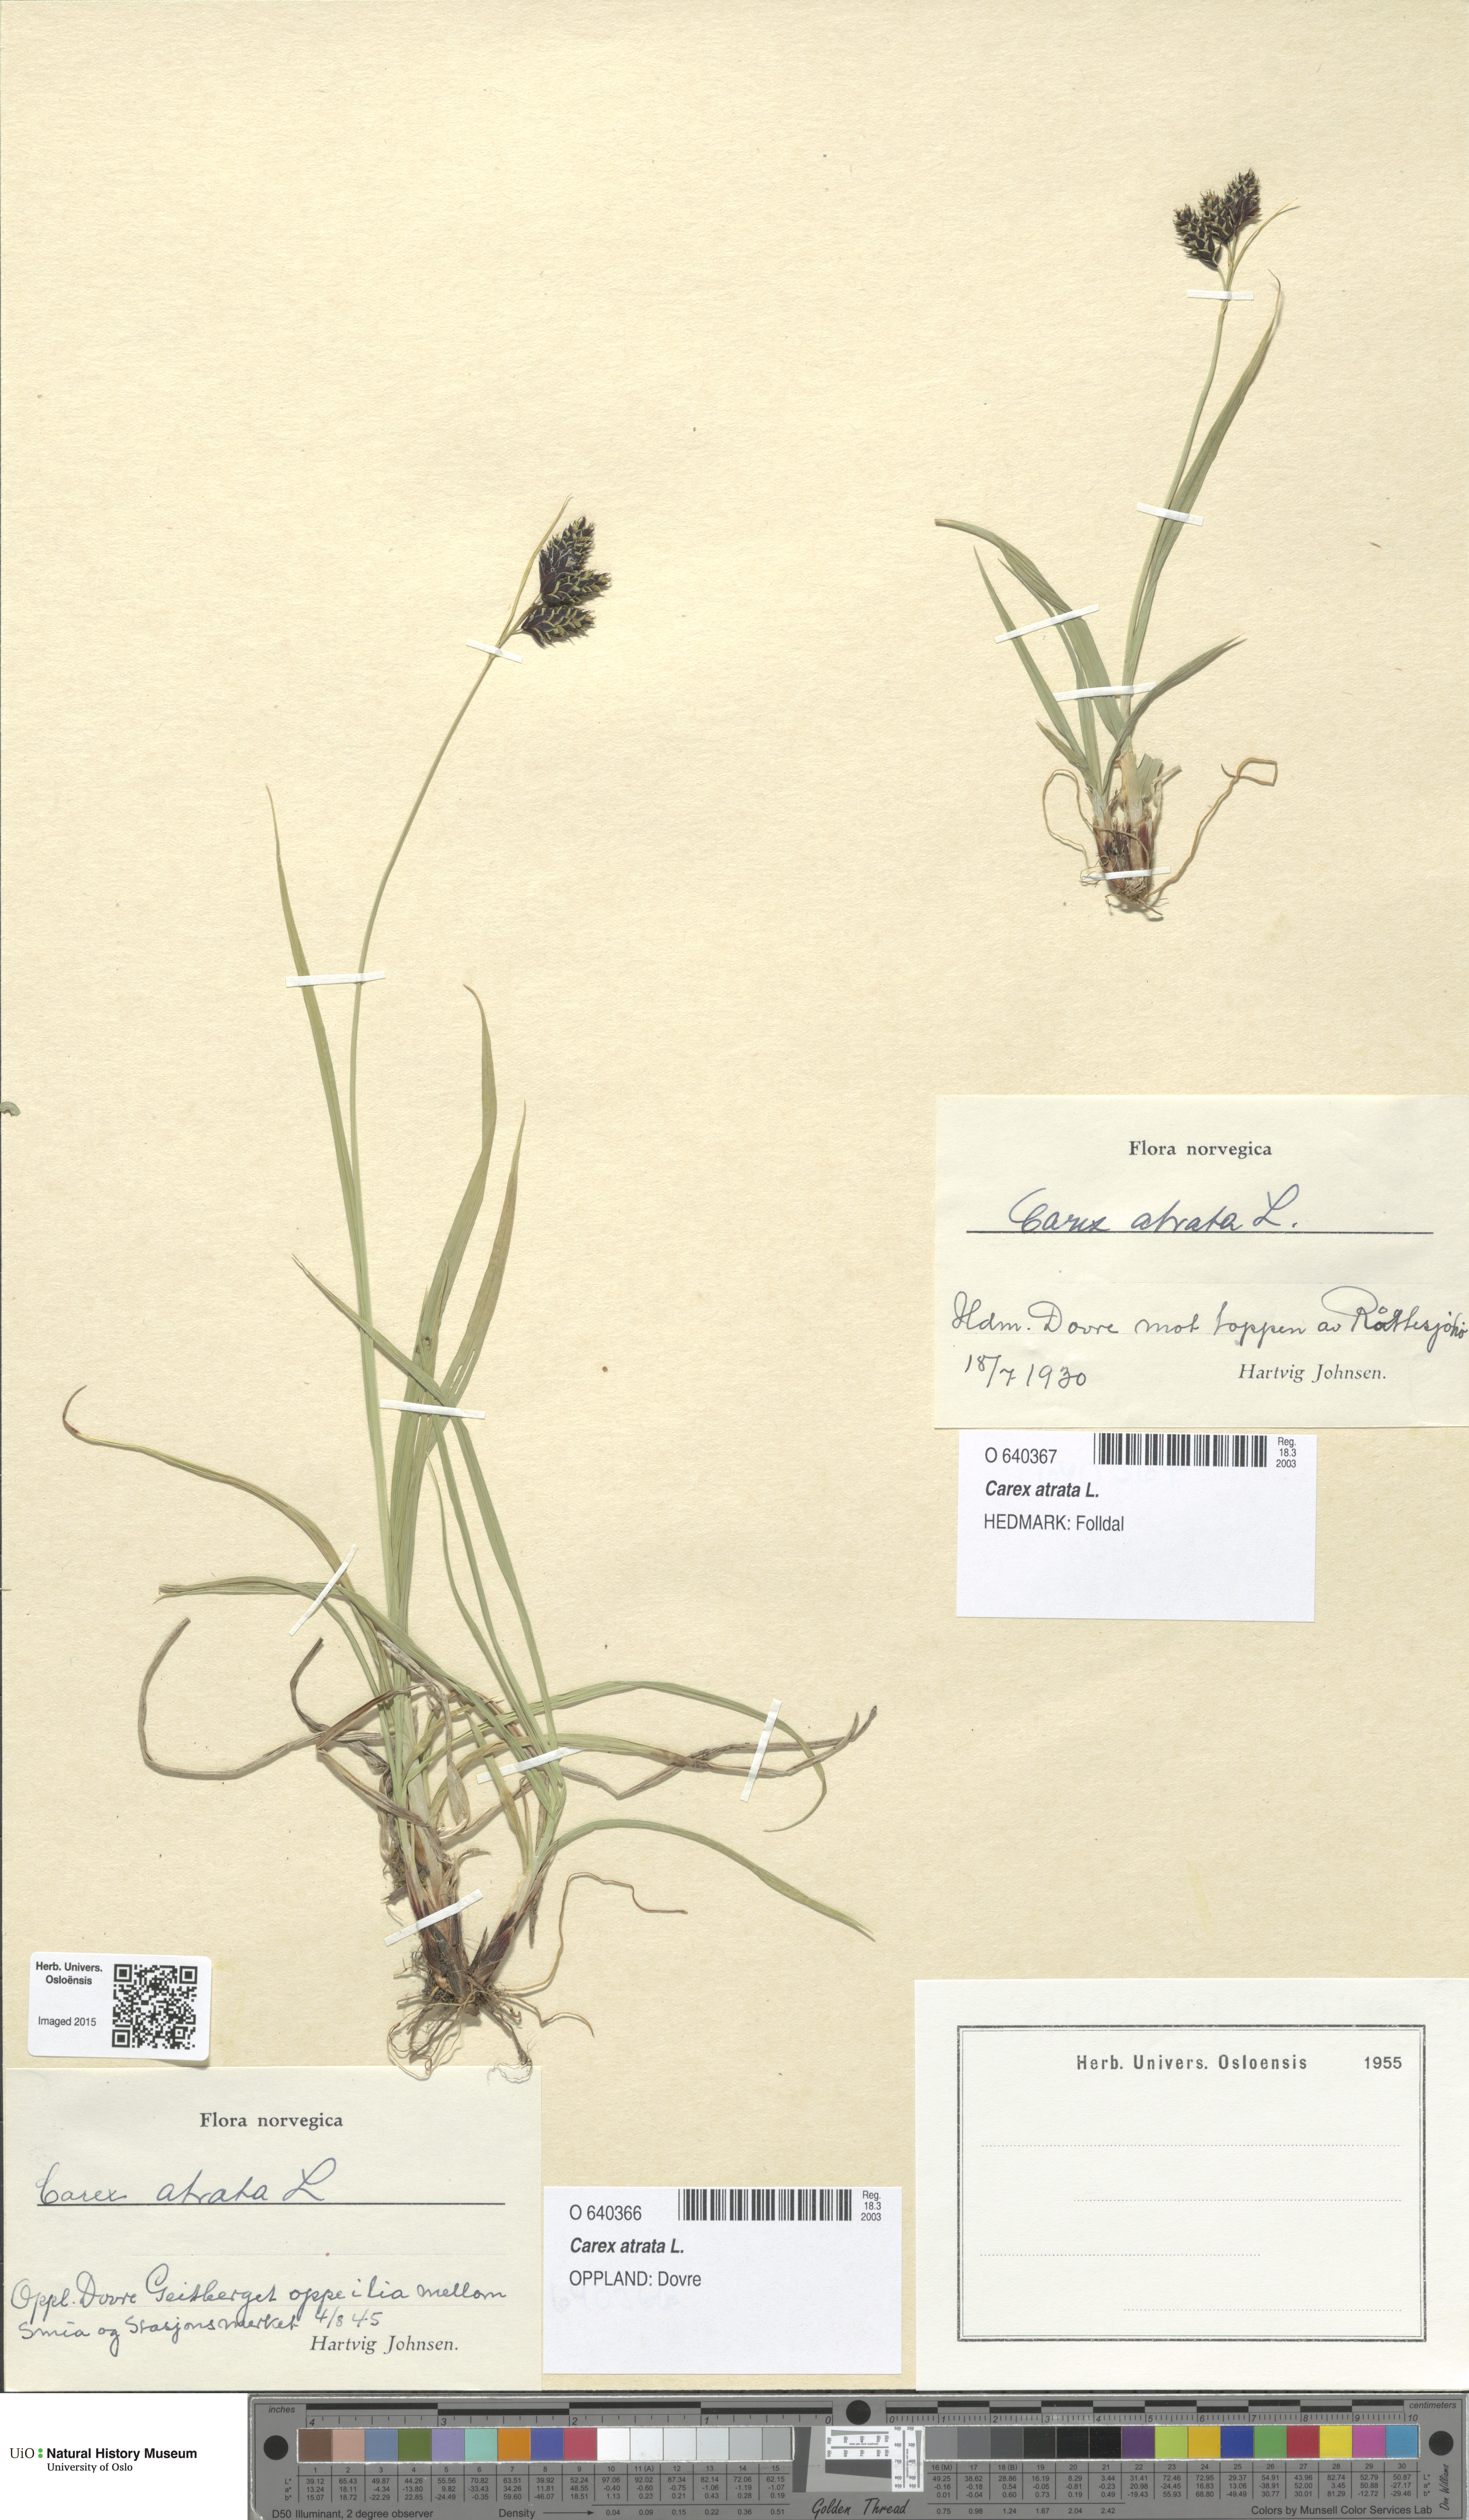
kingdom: Plantae
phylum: Tracheophyta
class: Liliopsida
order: Poales
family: Cyperaceae
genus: Carex
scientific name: Carex atrata
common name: Black alpine sedge
